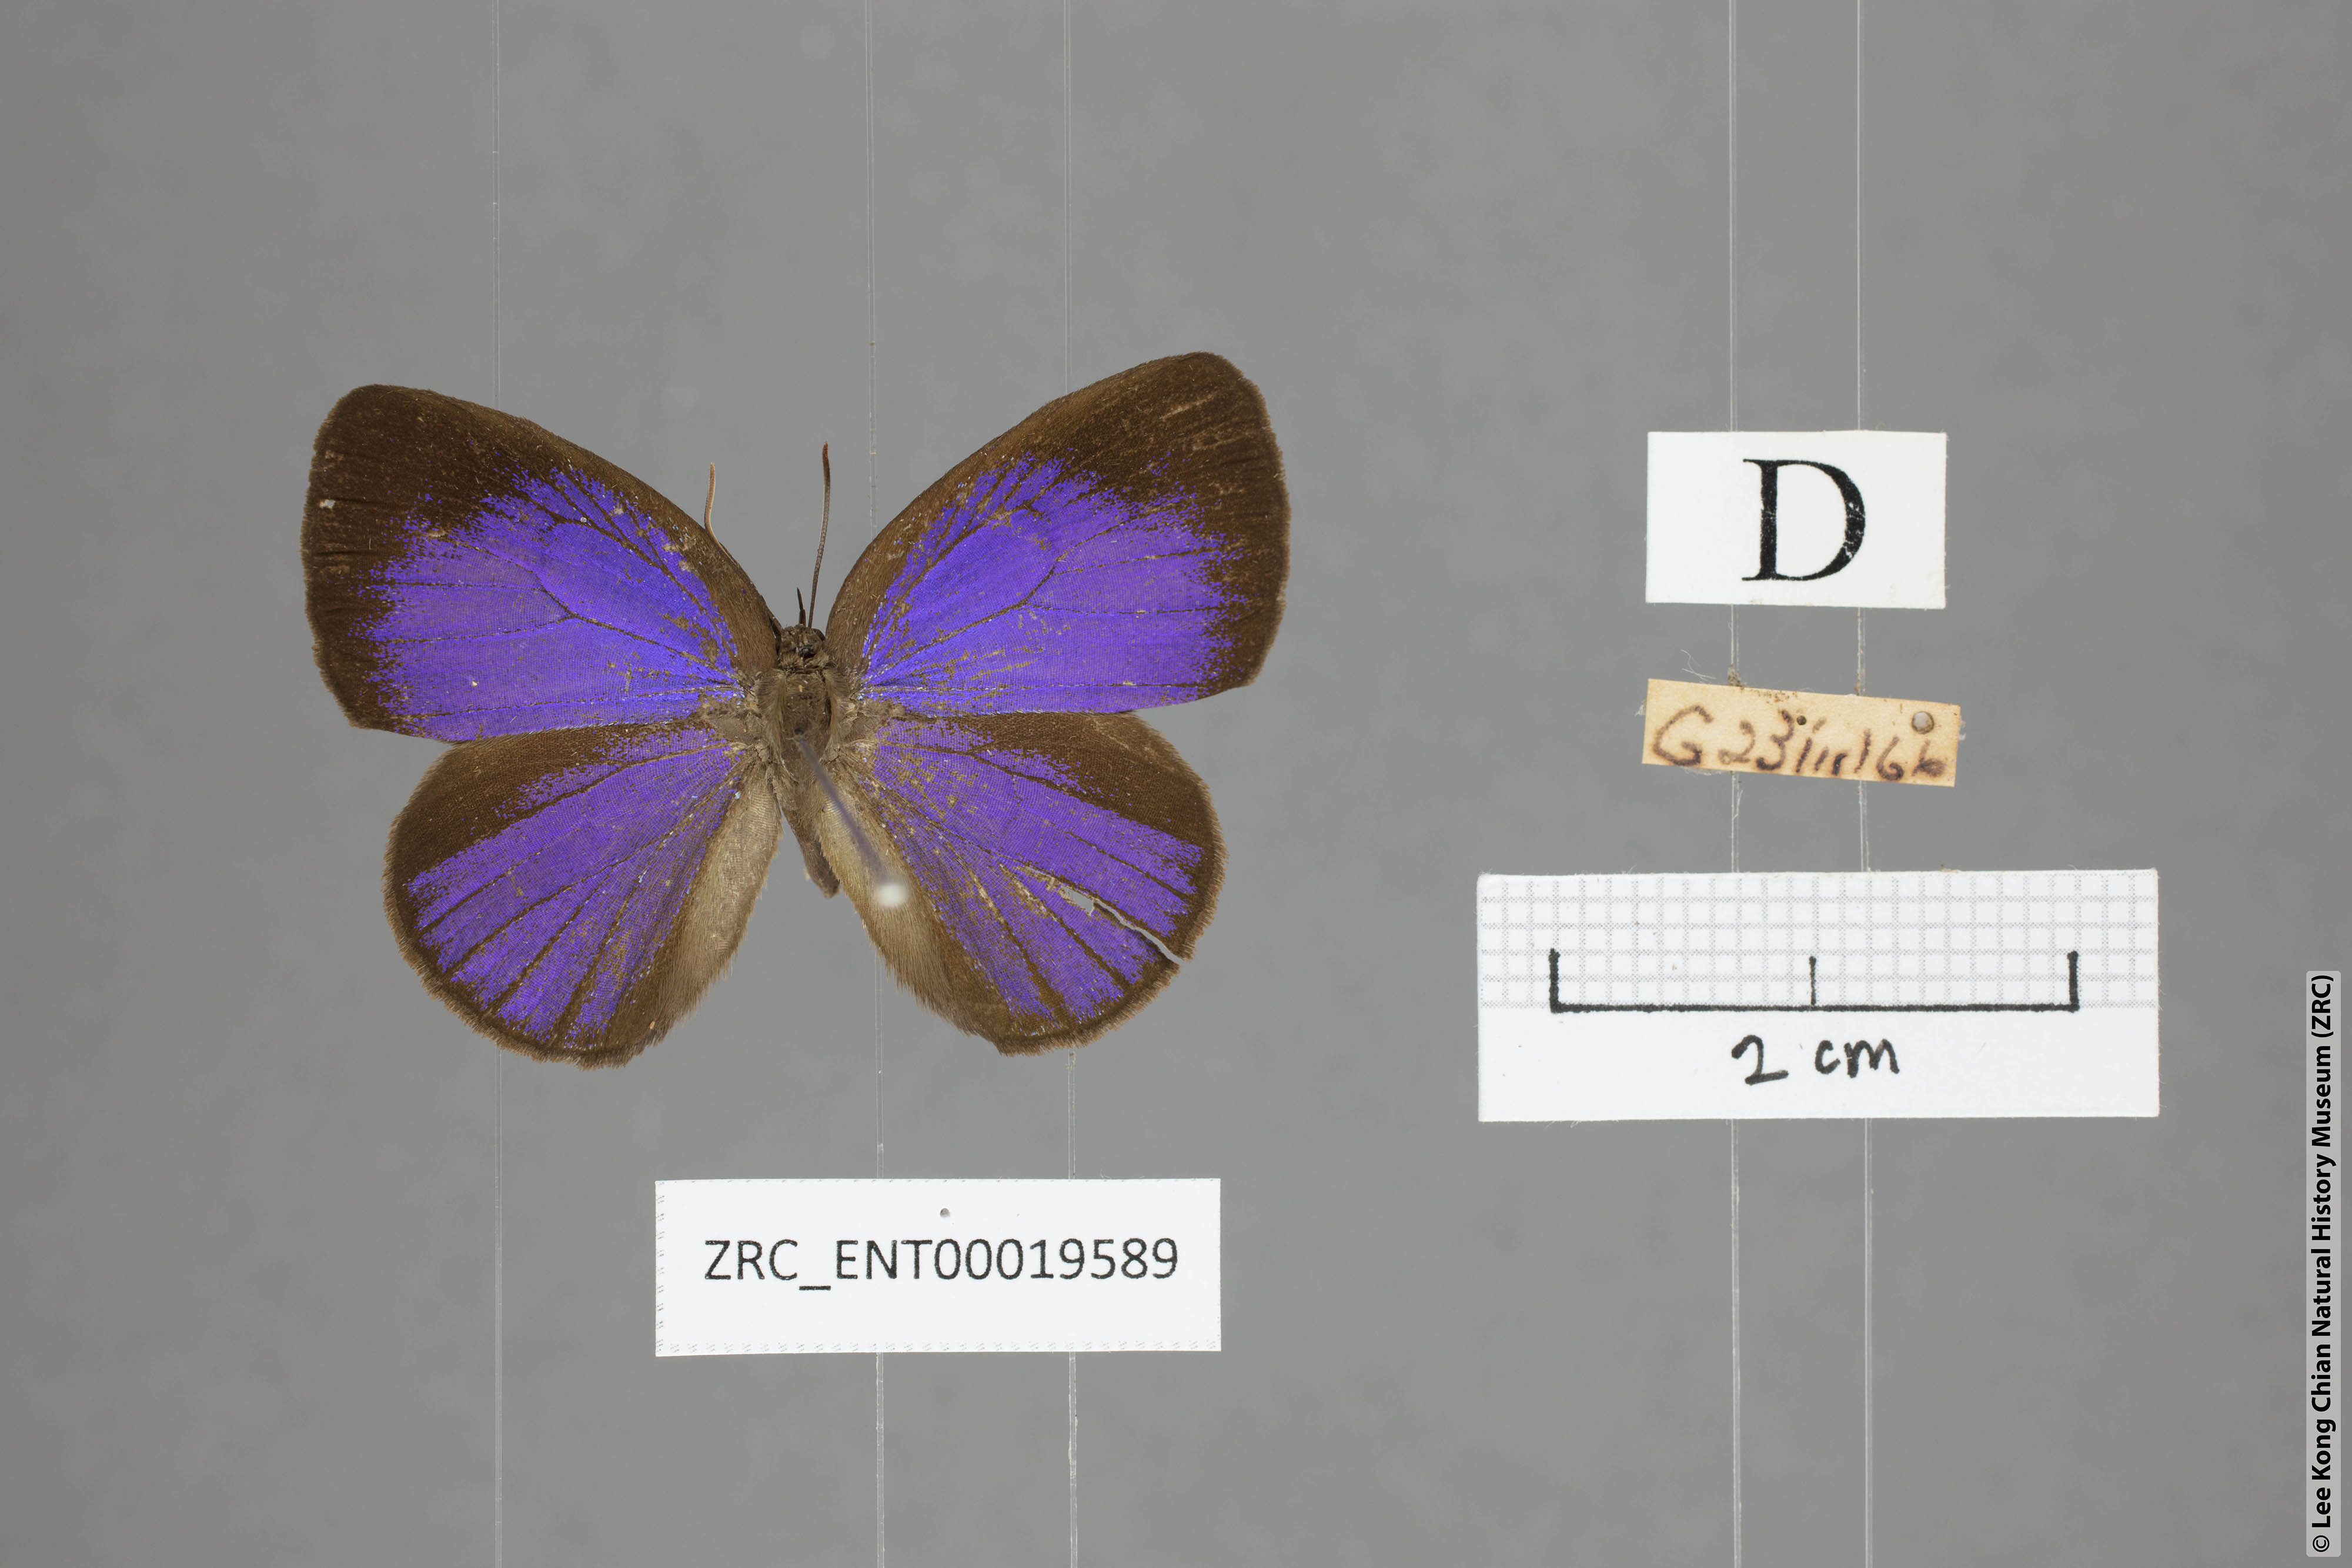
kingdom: Animalia
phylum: Arthropoda
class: Insecta
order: Lepidoptera
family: Lycaenidae
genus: Arhopala
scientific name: Arhopala kurzi
